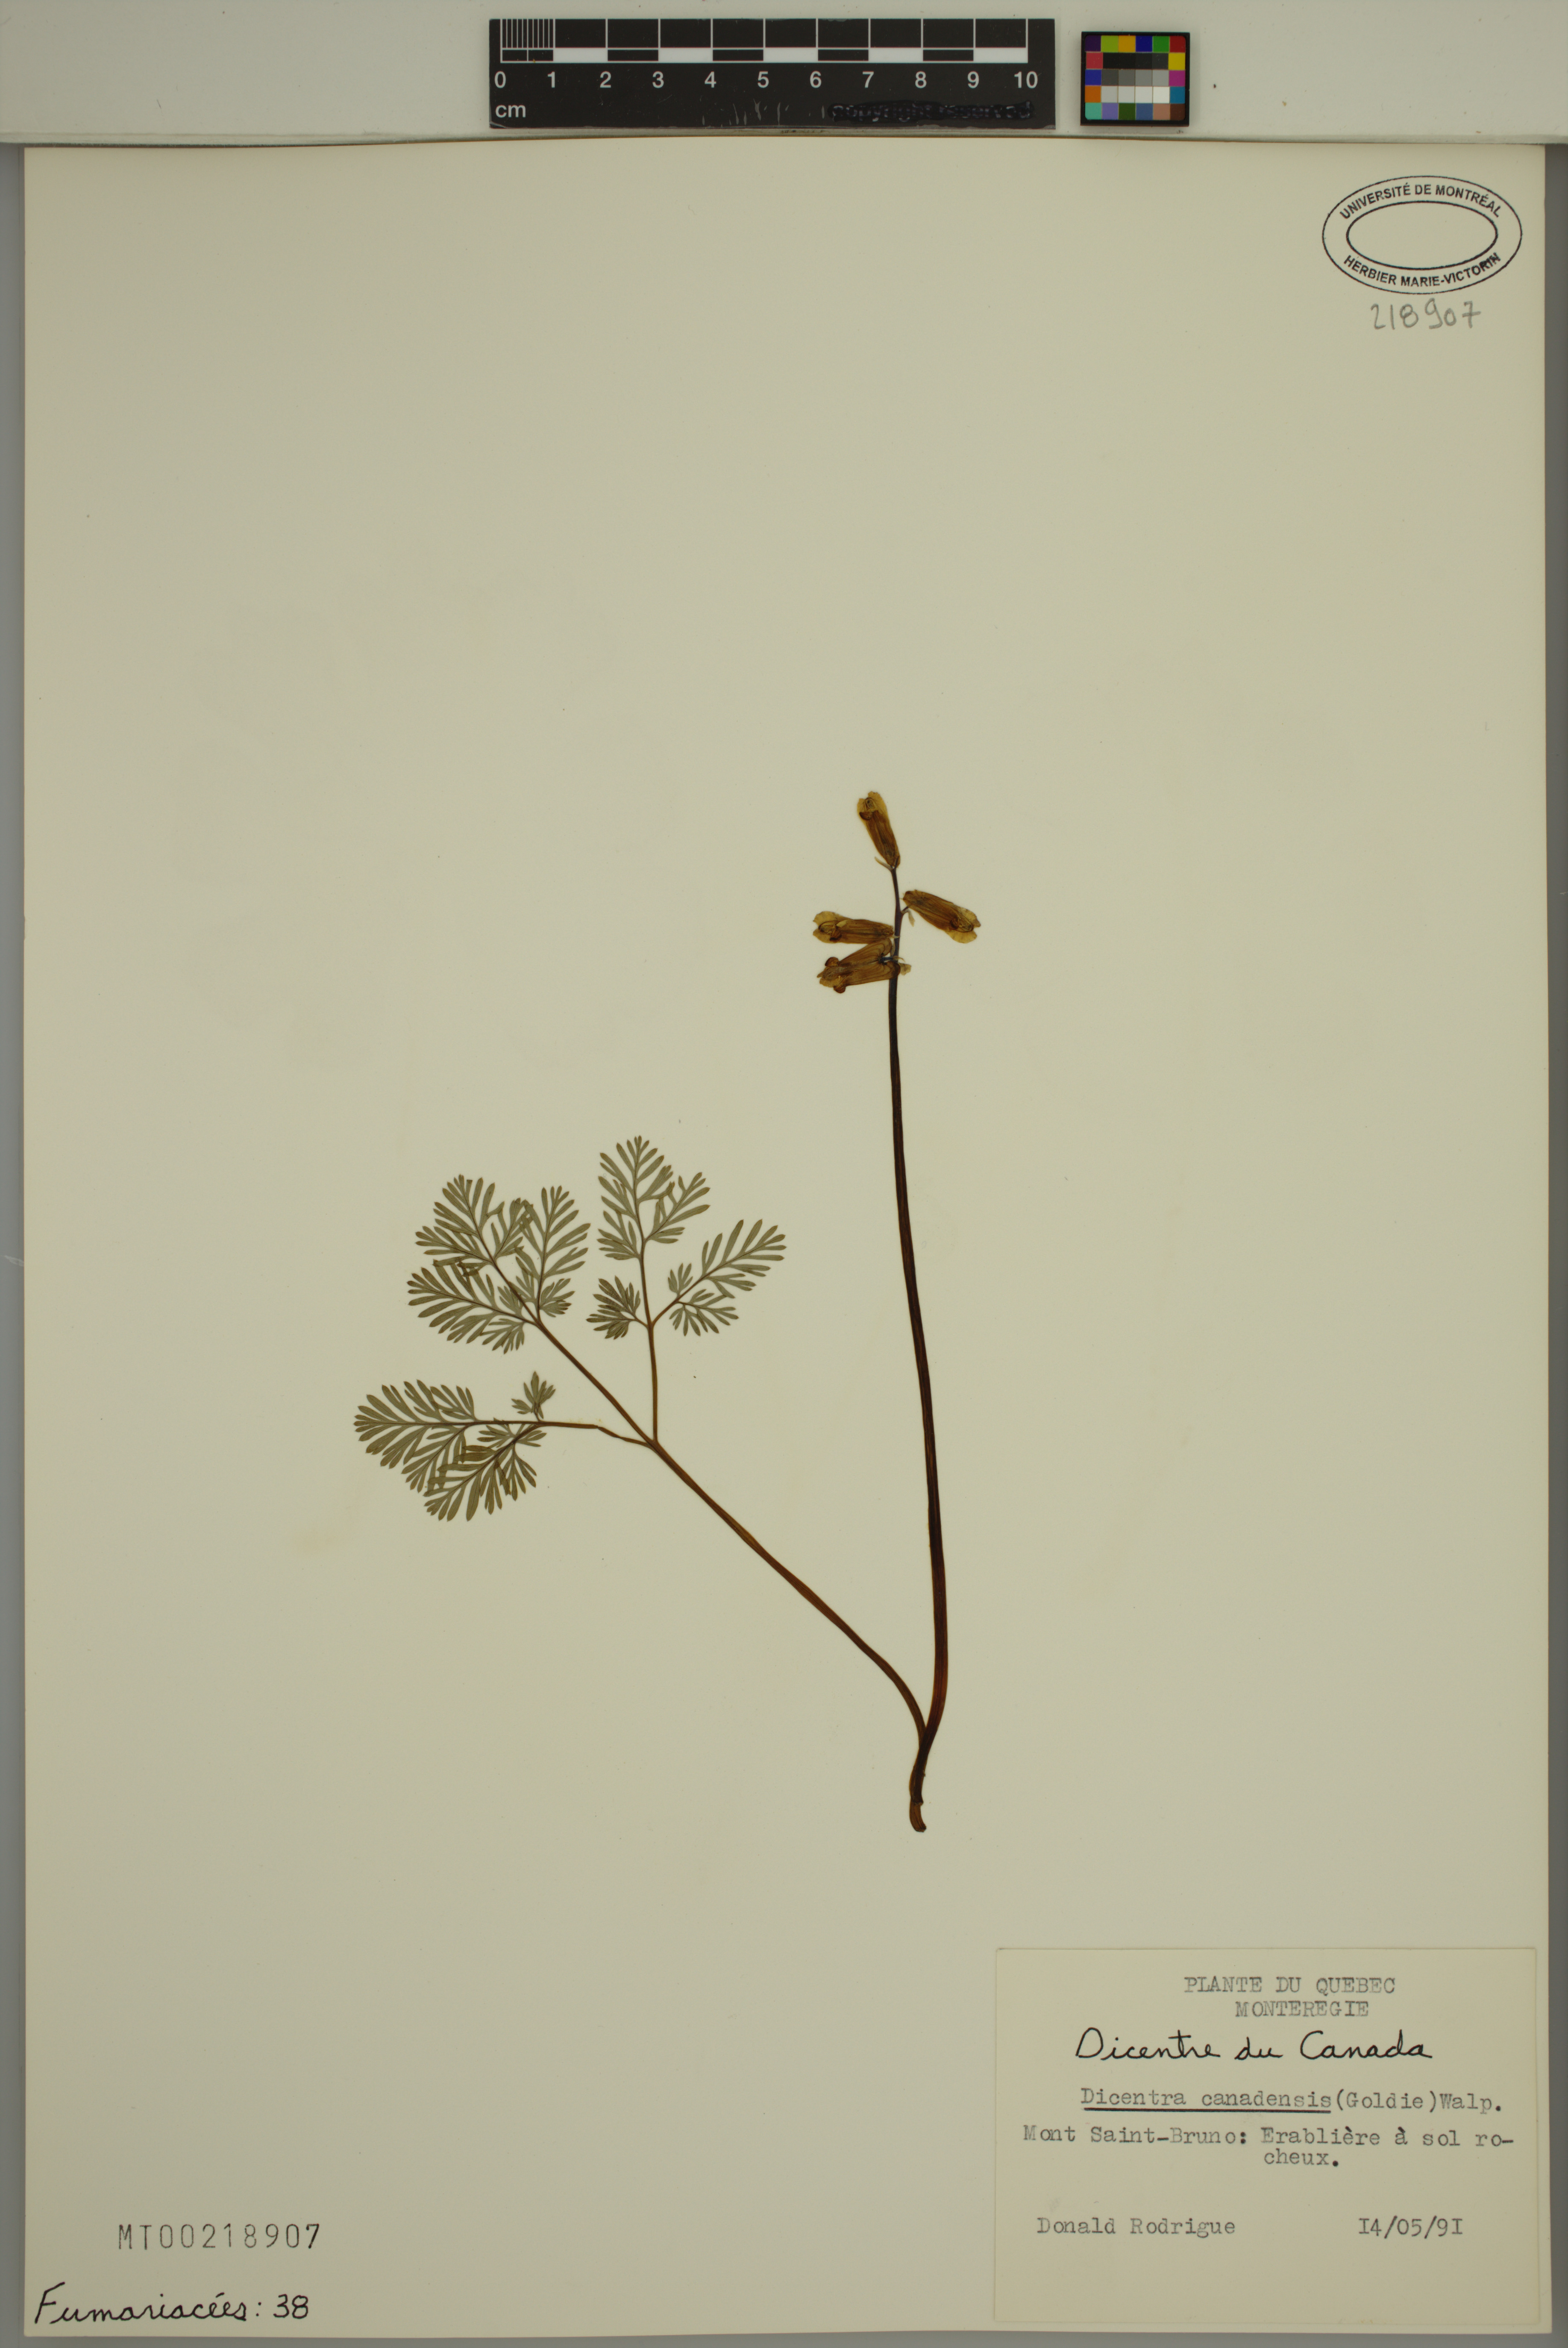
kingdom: Plantae
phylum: Tracheophyta
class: Magnoliopsida
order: Ranunculales
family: Papaveraceae
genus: Dicentra
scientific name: Dicentra canadensis
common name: Squirrel-corn
